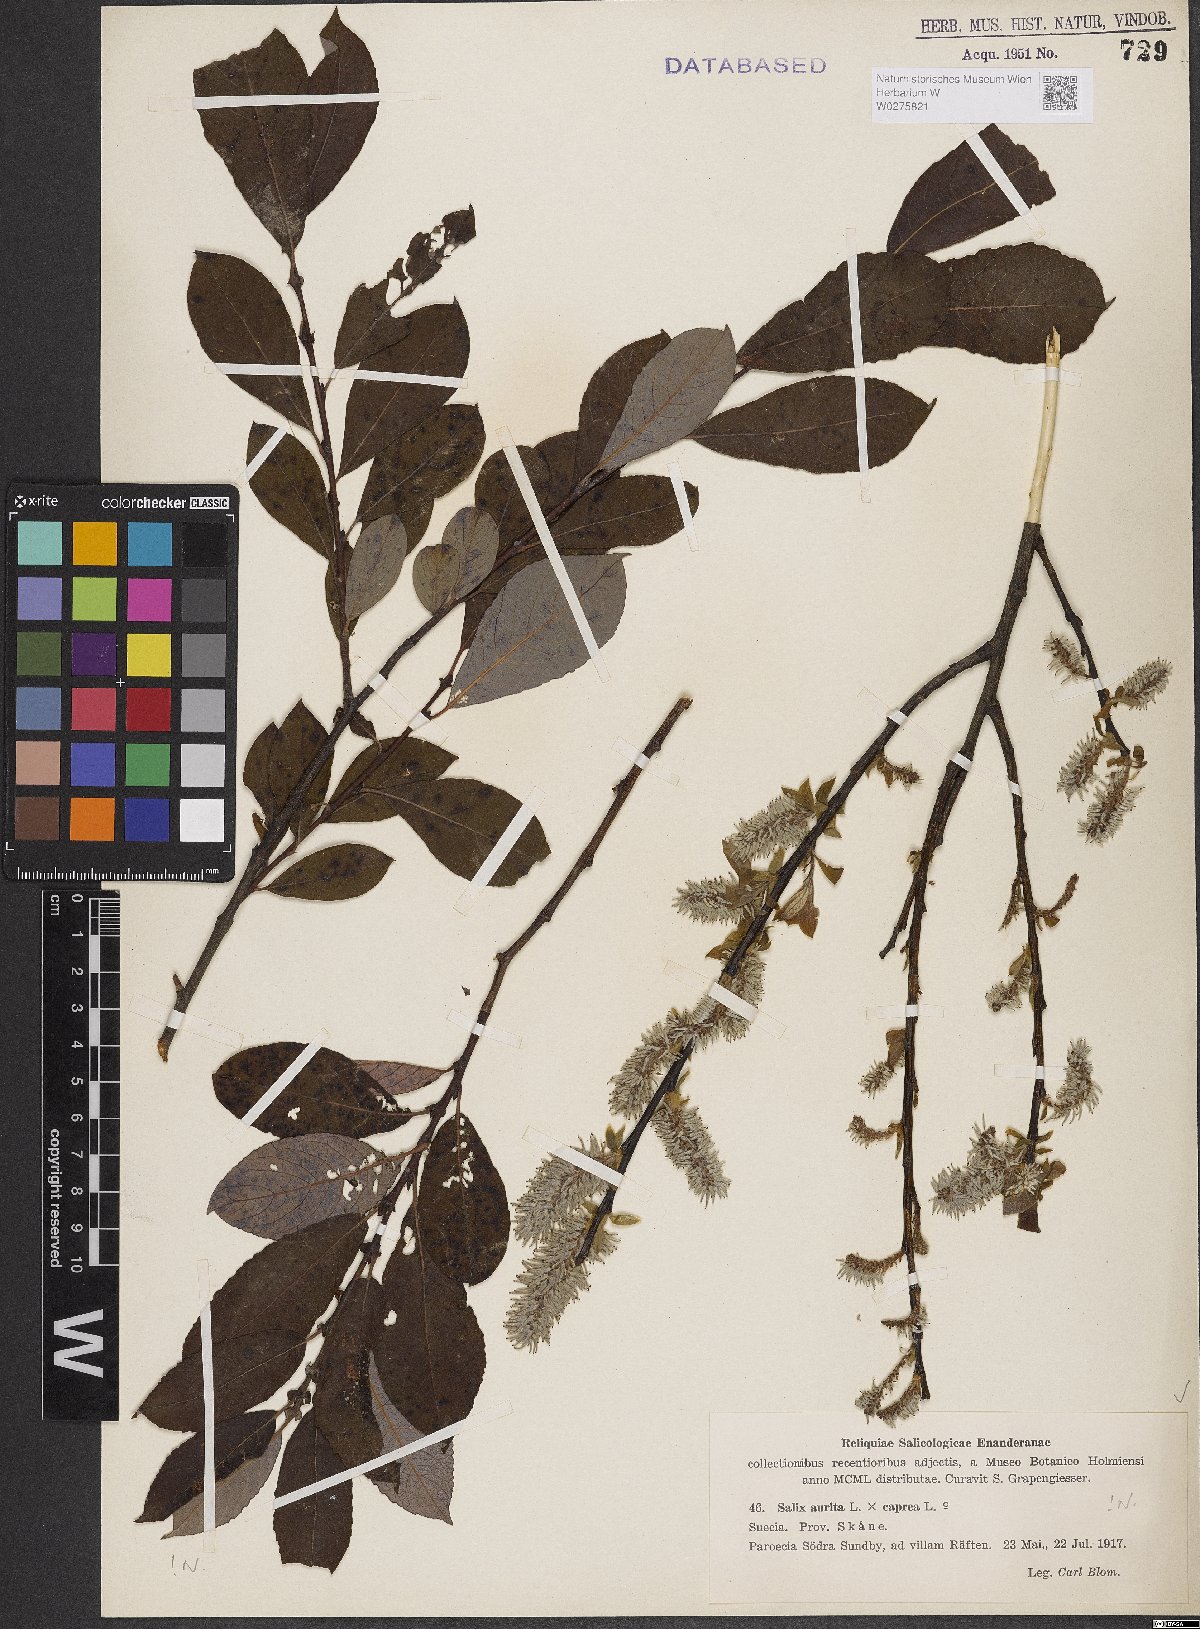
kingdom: Plantae
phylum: Tracheophyta
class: Magnoliopsida
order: Malpighiales
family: Salicaceae
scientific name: Salicaceae
